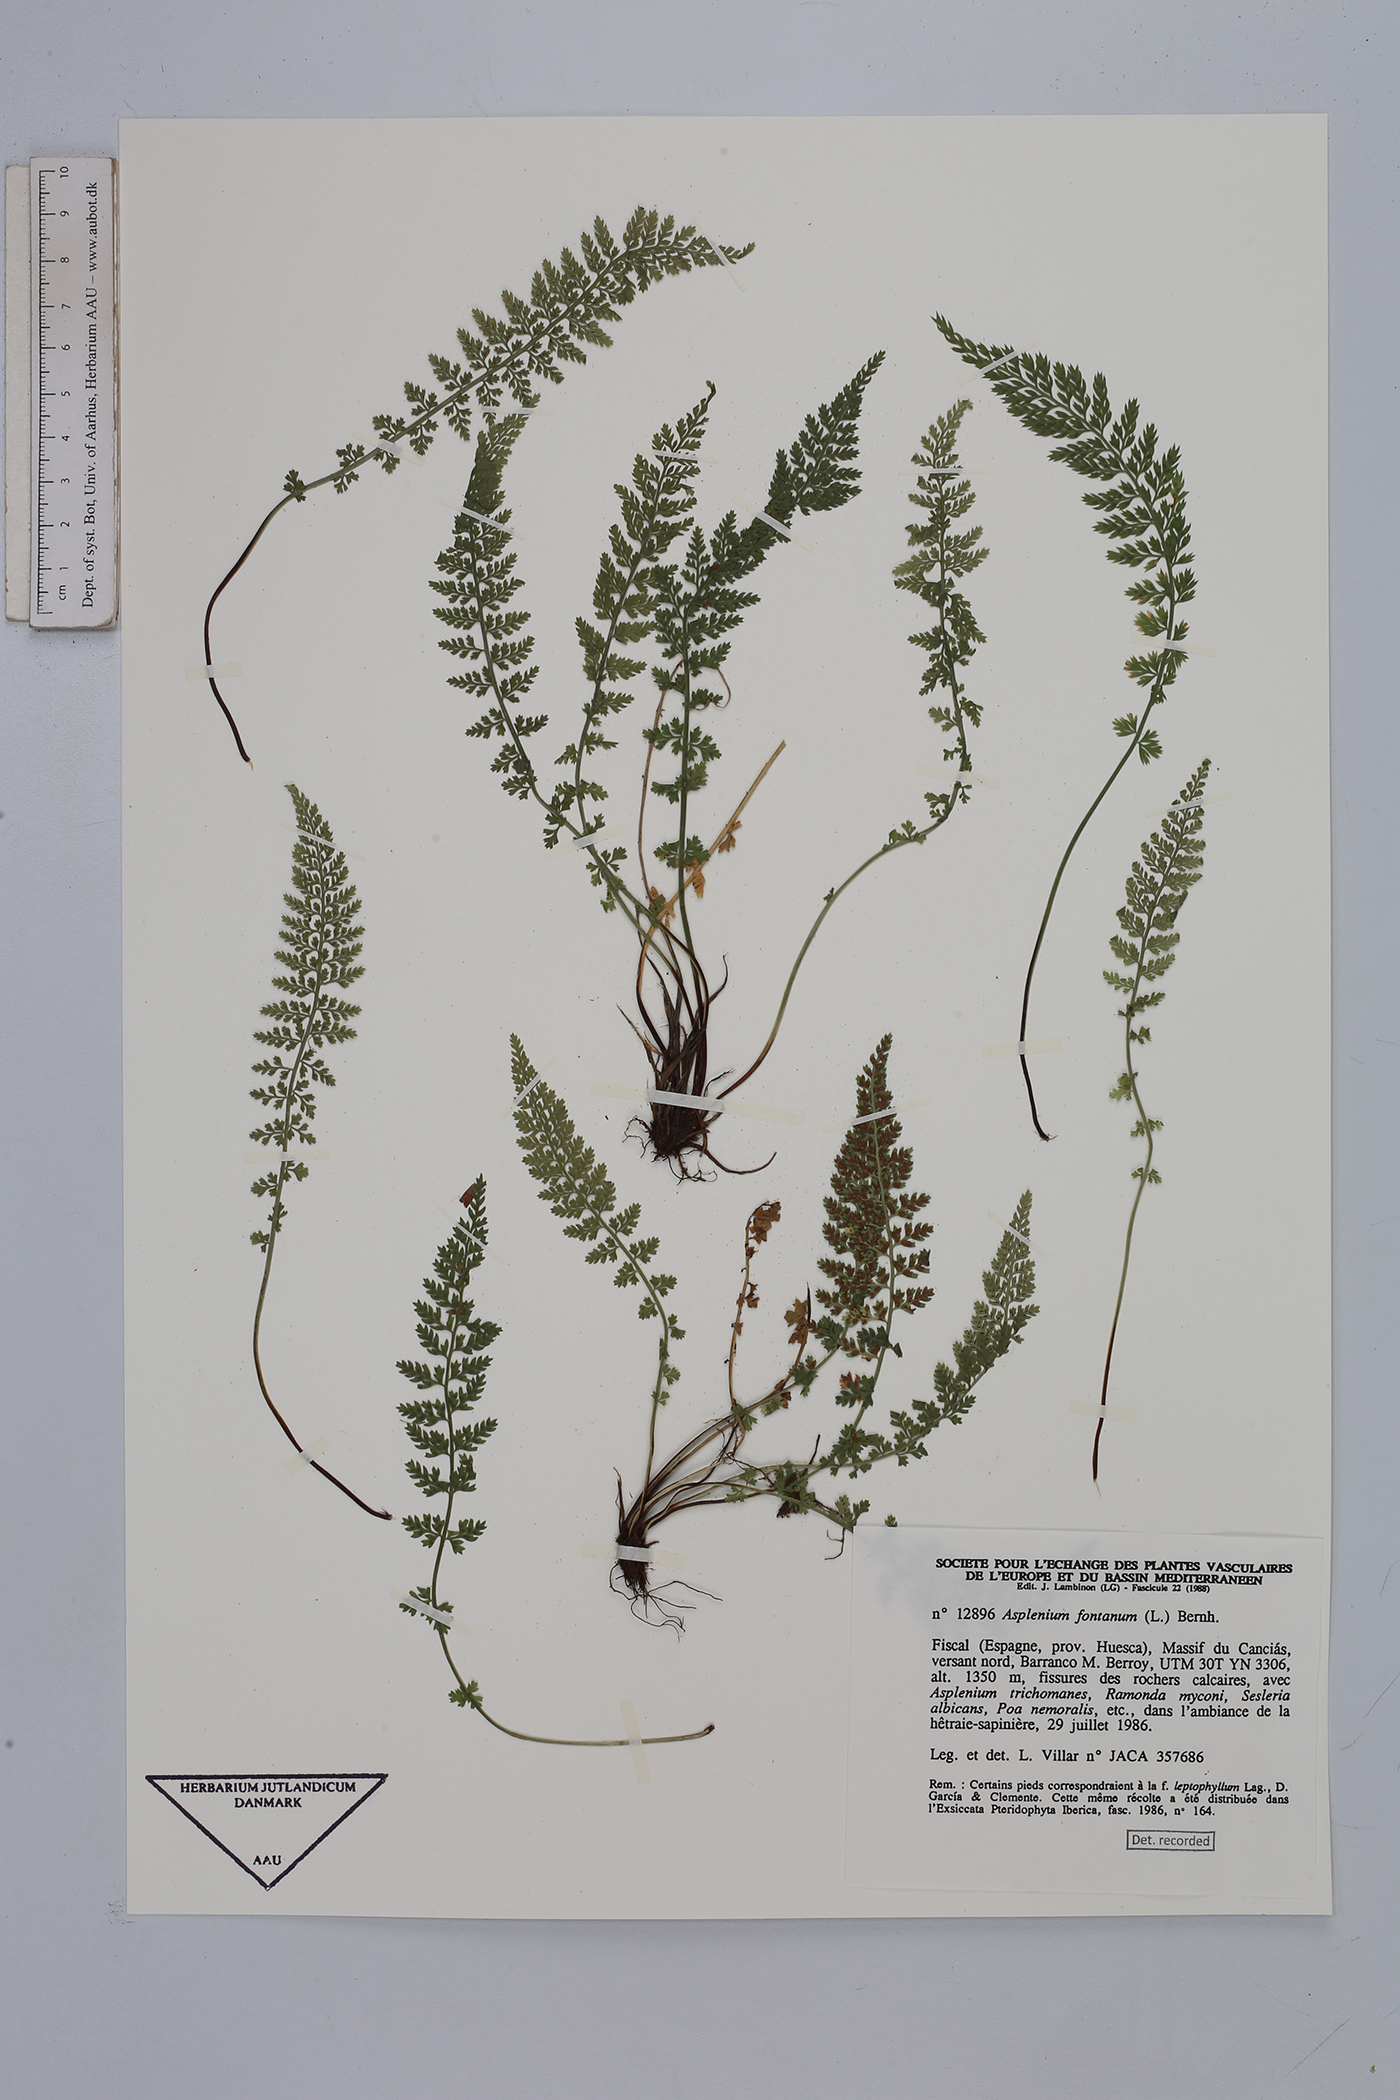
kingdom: Plantae
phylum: Tracheophyta
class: Polypodiopsida
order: Polypodiales
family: Aspleniaceae
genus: Asplenium
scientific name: Asplenium fontanum
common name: Fountain spleenwort
